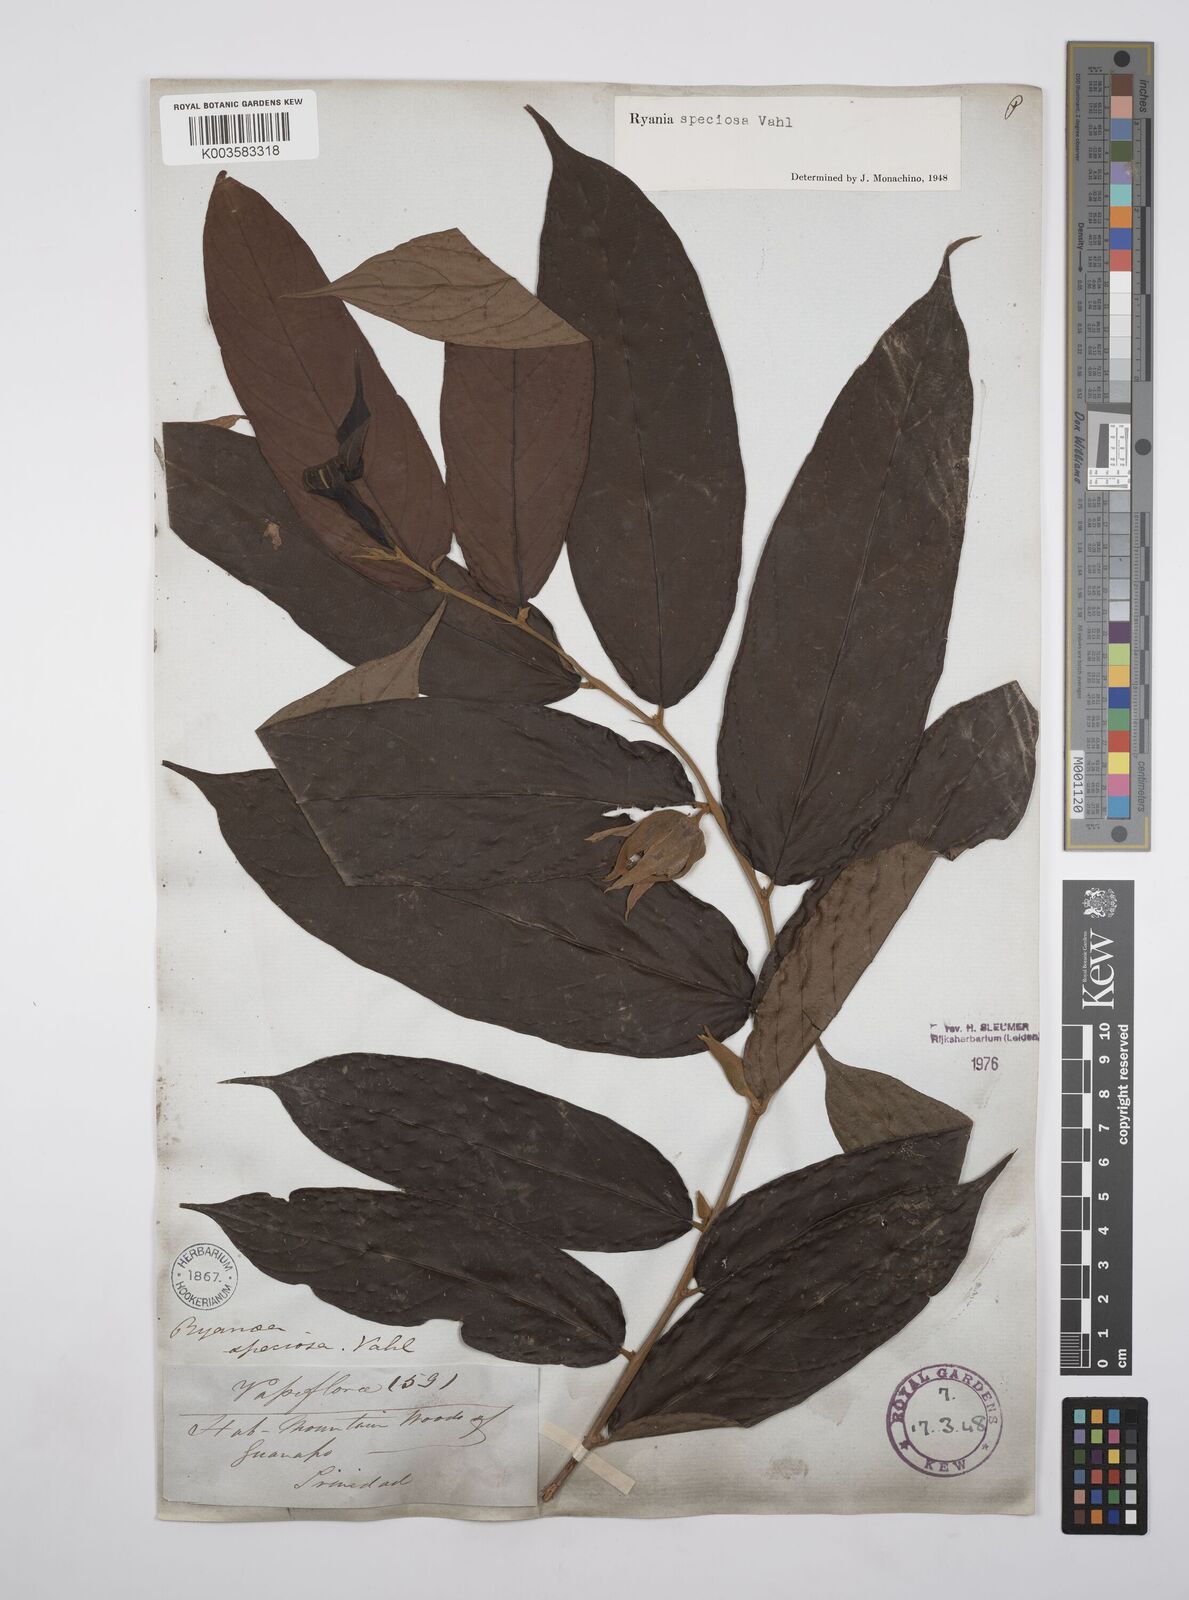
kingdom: Plantae
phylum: Tracheophyta
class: Magnoliopsida
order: Malpighiales
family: Salicaceae
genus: Ryania
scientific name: Ryania speciosa
